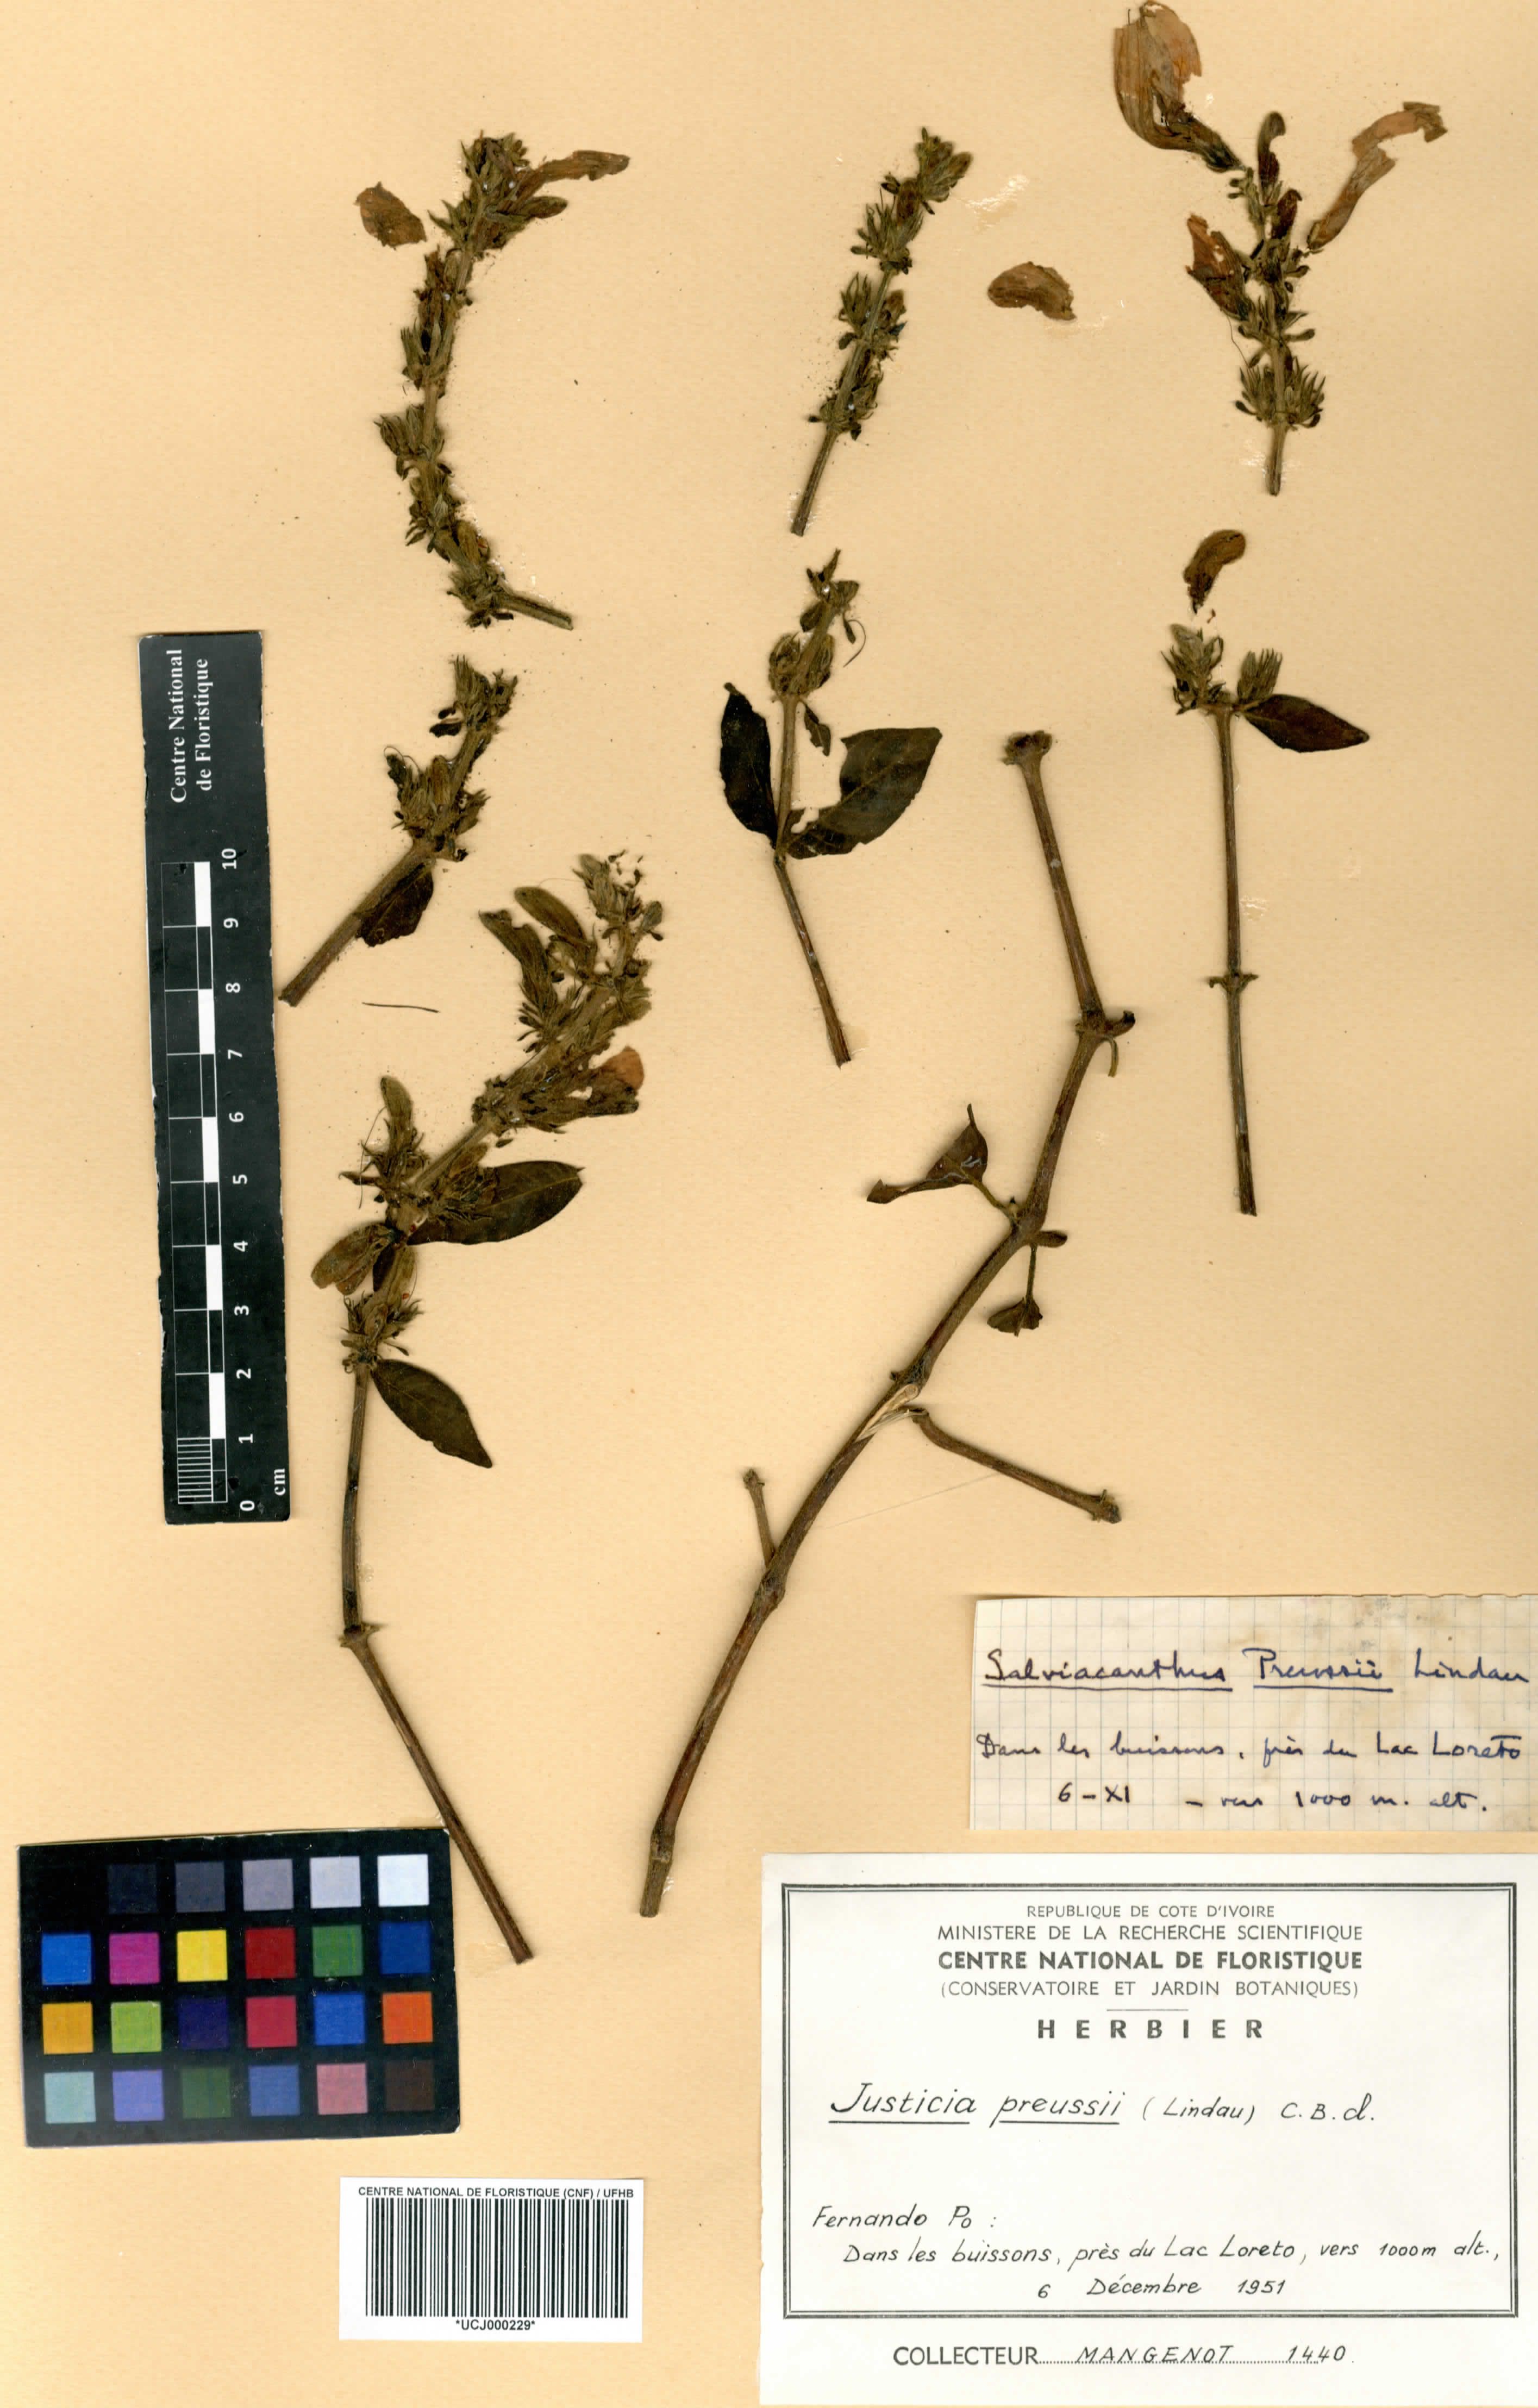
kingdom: Plantae
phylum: Tracheophyta
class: Magnoliopsida
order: Lamiales
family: Acanthaceae
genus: Justicia
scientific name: Justicia preussii
